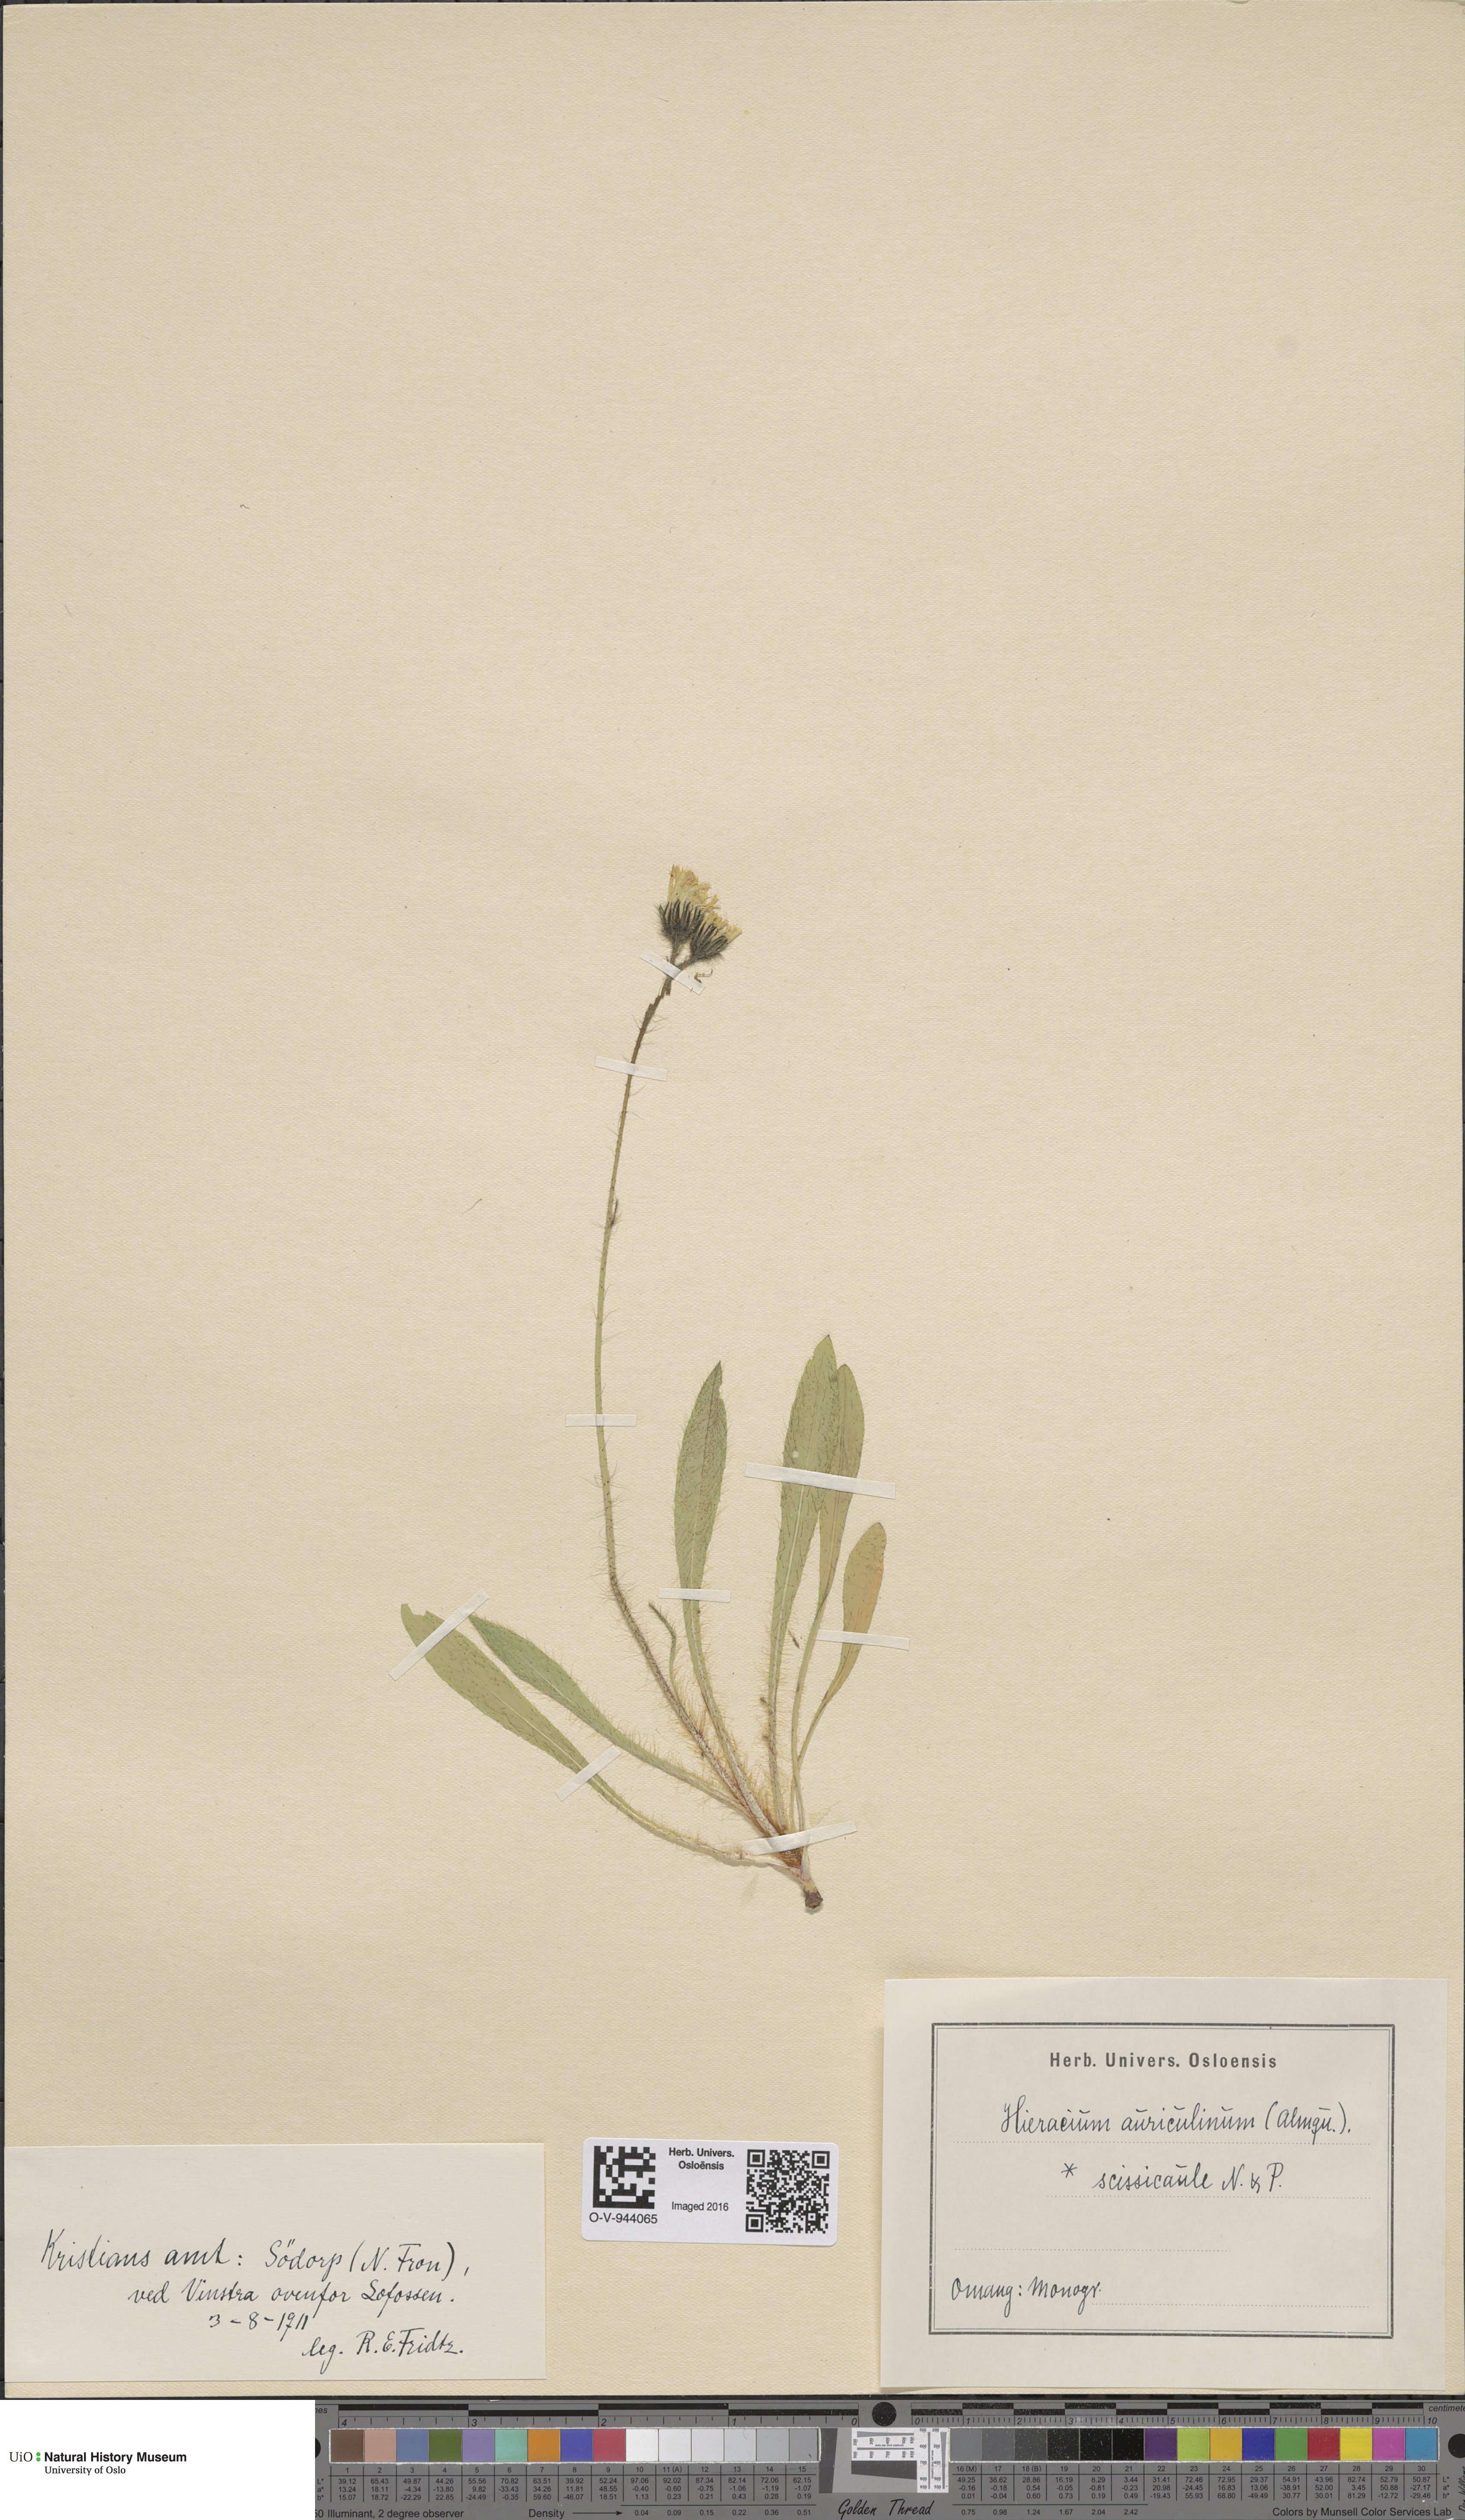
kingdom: Plantae
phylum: Tracheophyta
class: Magnoliopsida
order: Asterales
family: Asteraceae
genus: Pilosella
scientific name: Pilosella dubia
